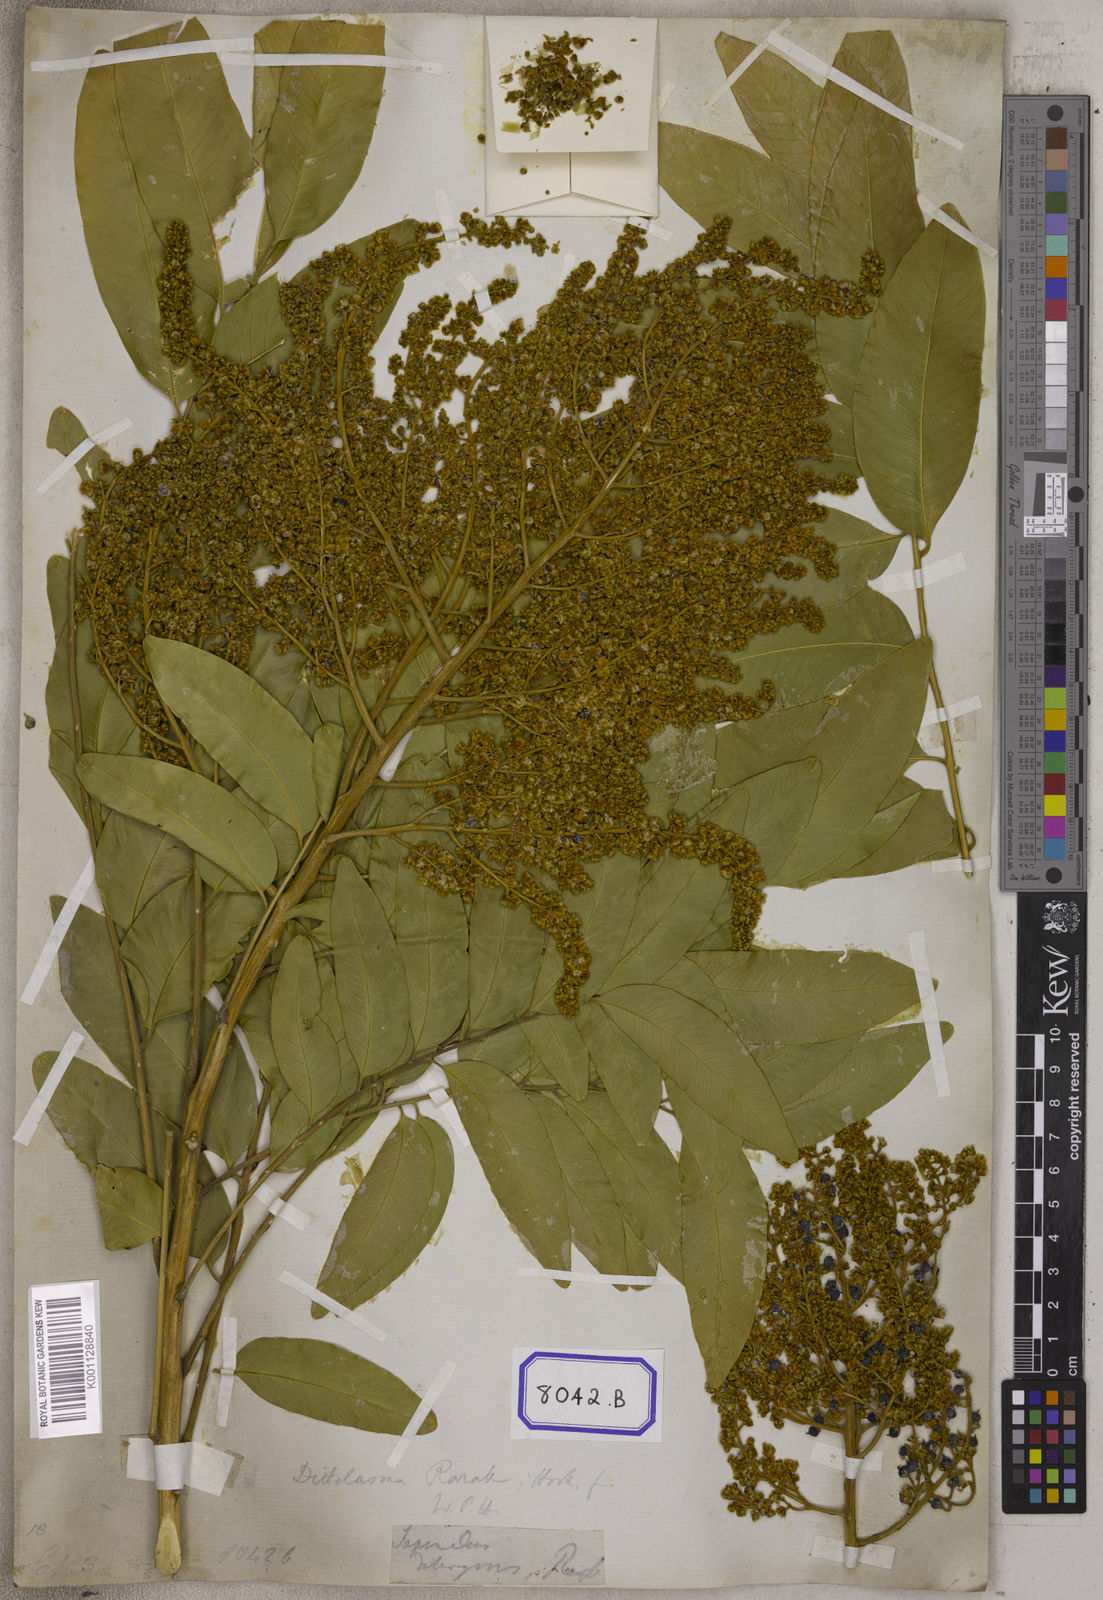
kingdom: Plantae
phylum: Tracheophyta
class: Magnoliopsida
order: Sapindales
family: Sapindaceae
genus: Sapindus
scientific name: Sapindus rarak
